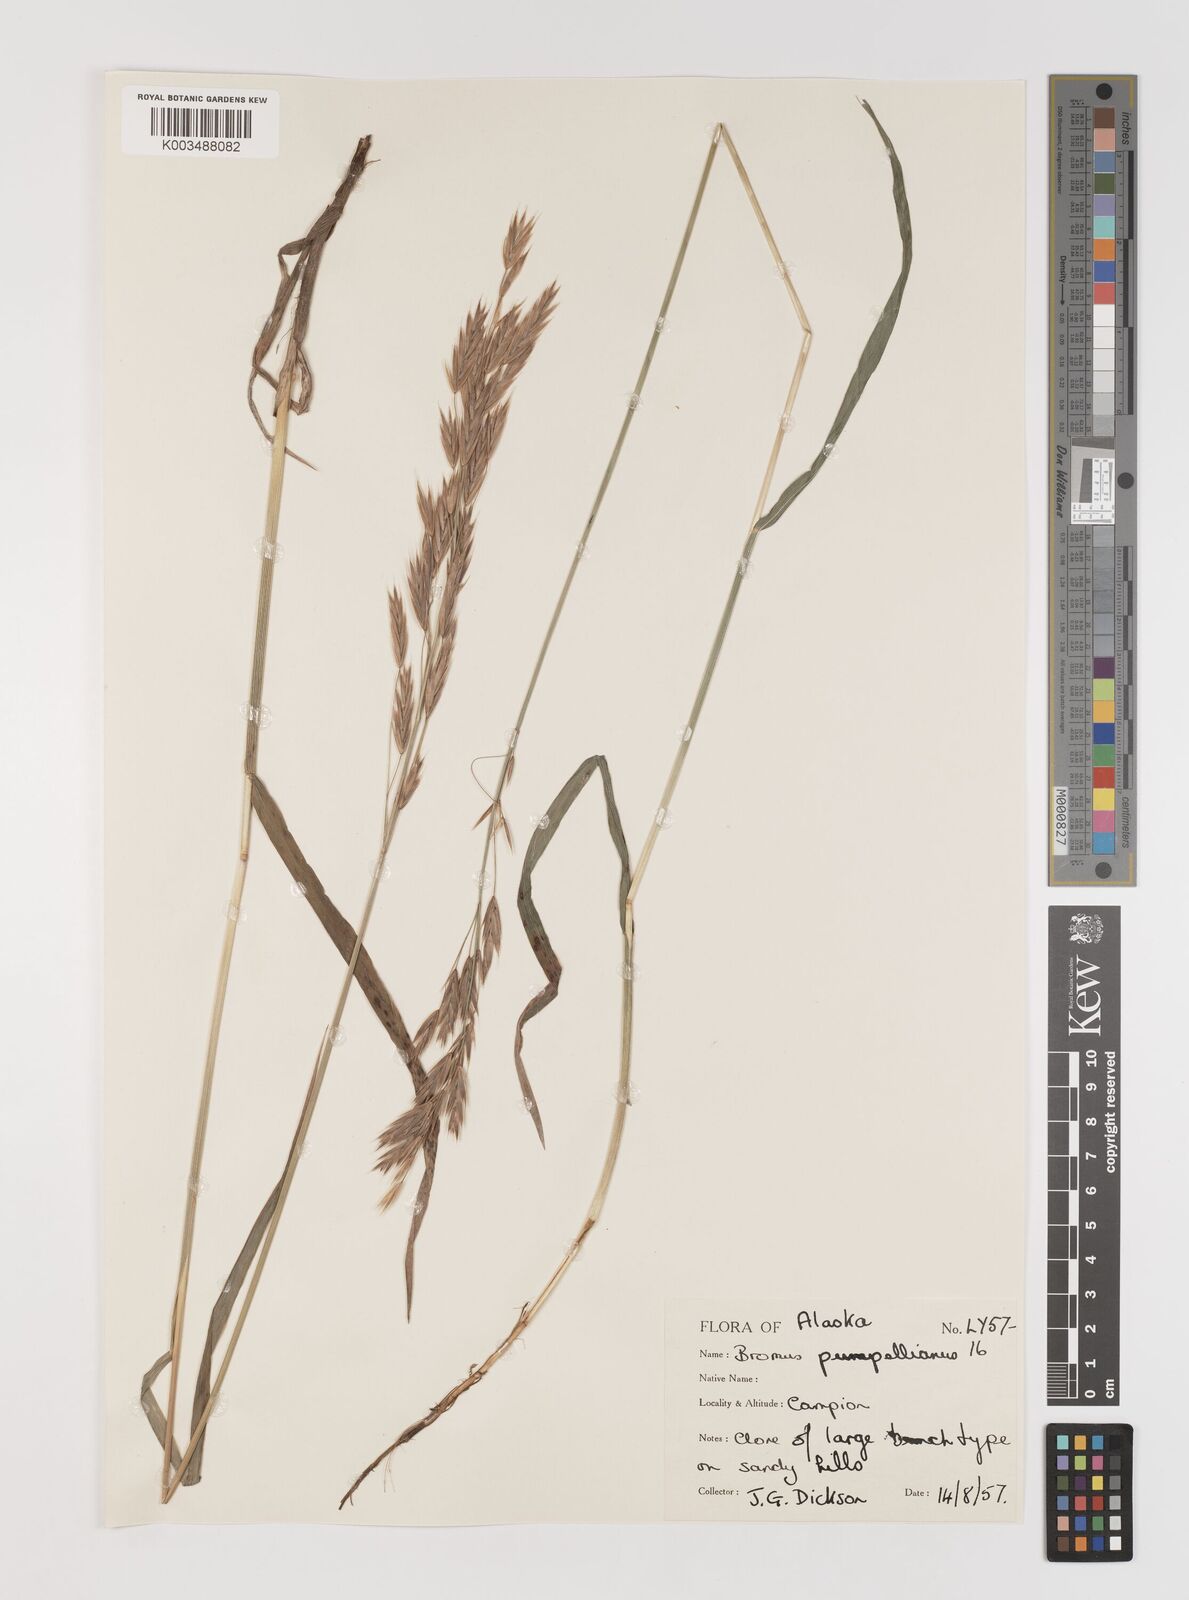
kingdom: Plantae
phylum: Tracheophyta
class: Liliopsida
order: Poales
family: Poaceae
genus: Bromus
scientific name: Bromus pumpellianus
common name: Pumpelly's brome
